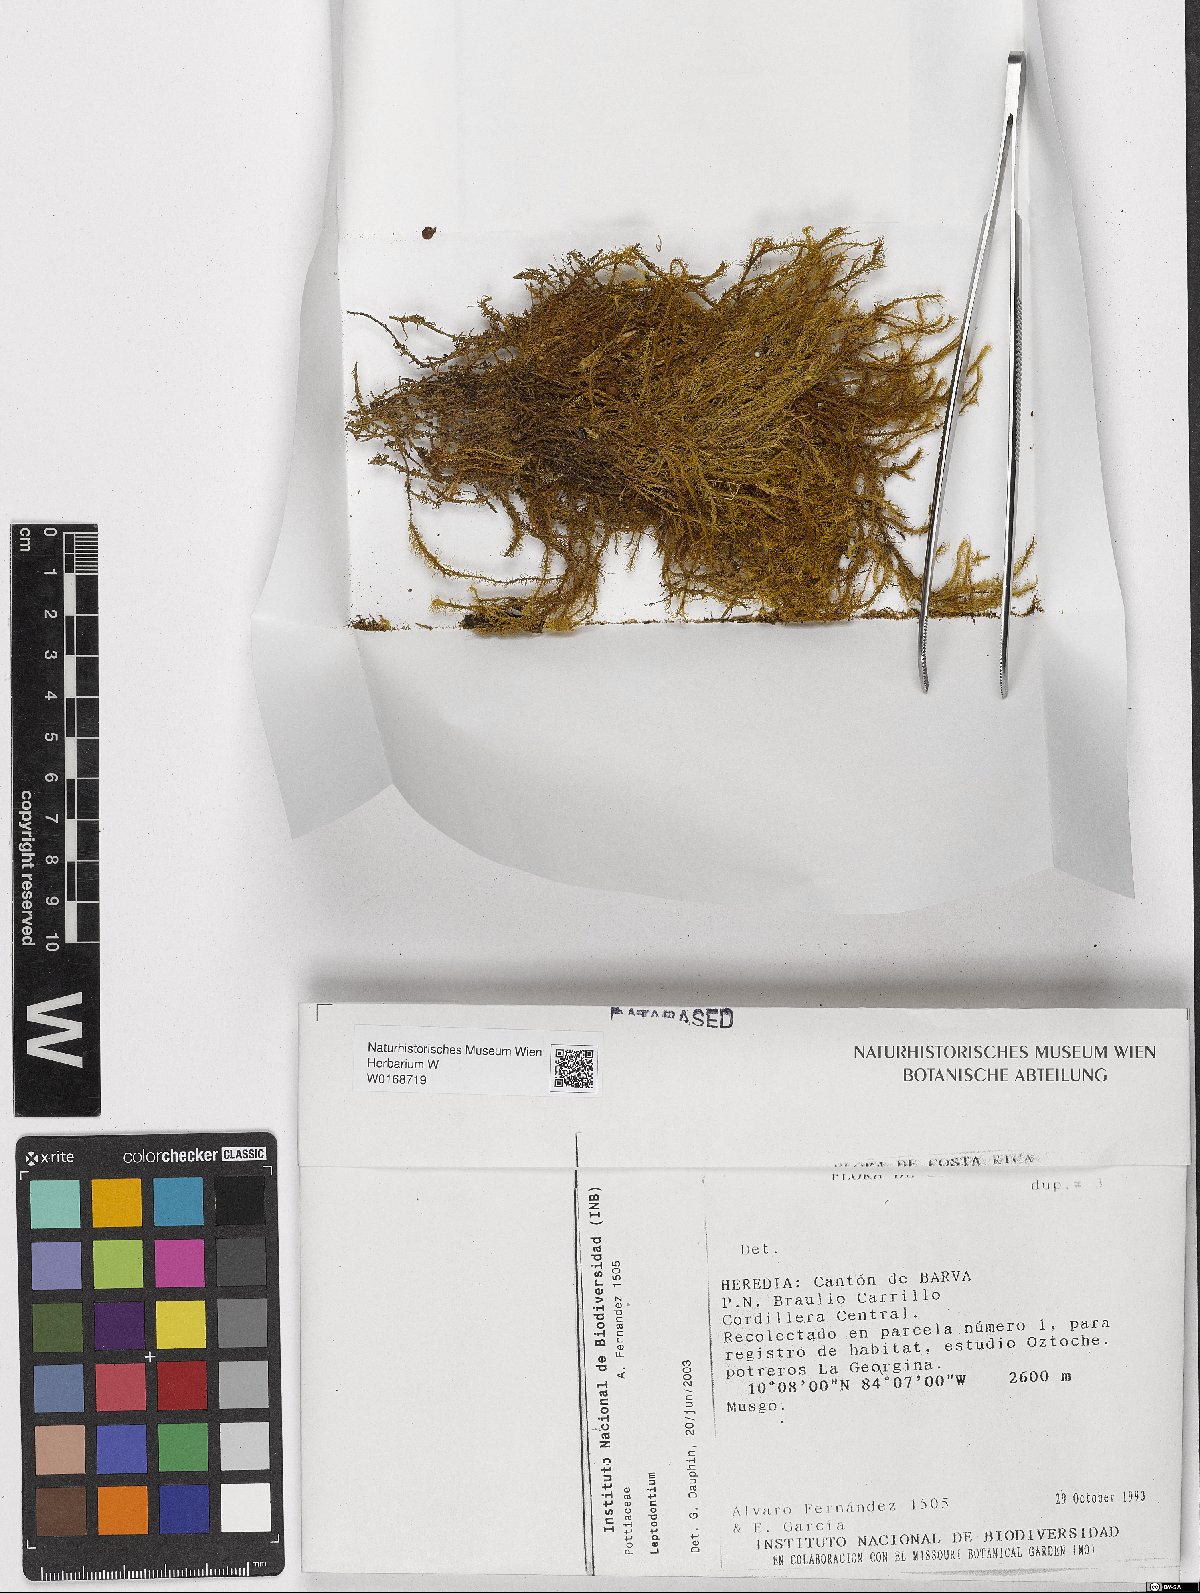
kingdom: Plantae
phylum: Bryophyta
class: Bryopsida
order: Pottiales
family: Pottiaceae
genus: Leptodontium
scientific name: Leptodontium
